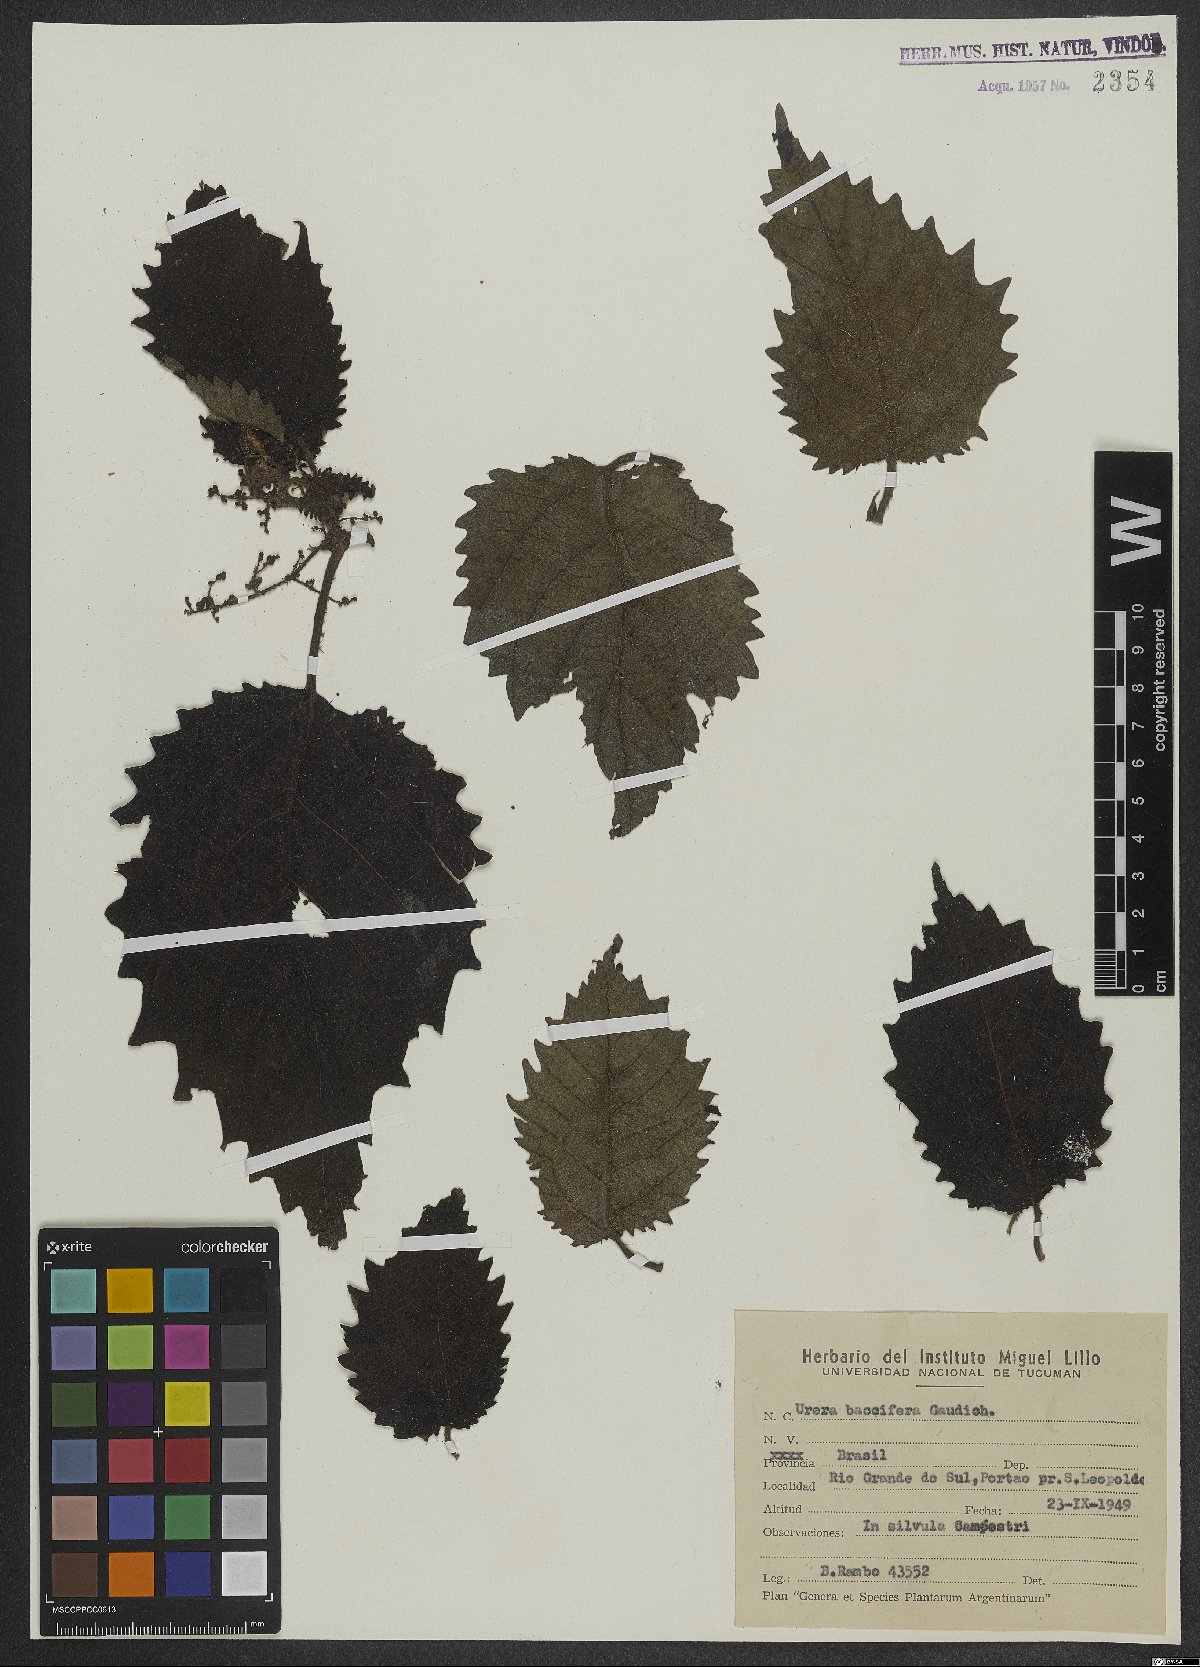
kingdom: Plantae
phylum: Tracheophyta
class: Magnoliopsida
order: Rosales
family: Urticaceae
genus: Urera
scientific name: Urera baccifera
